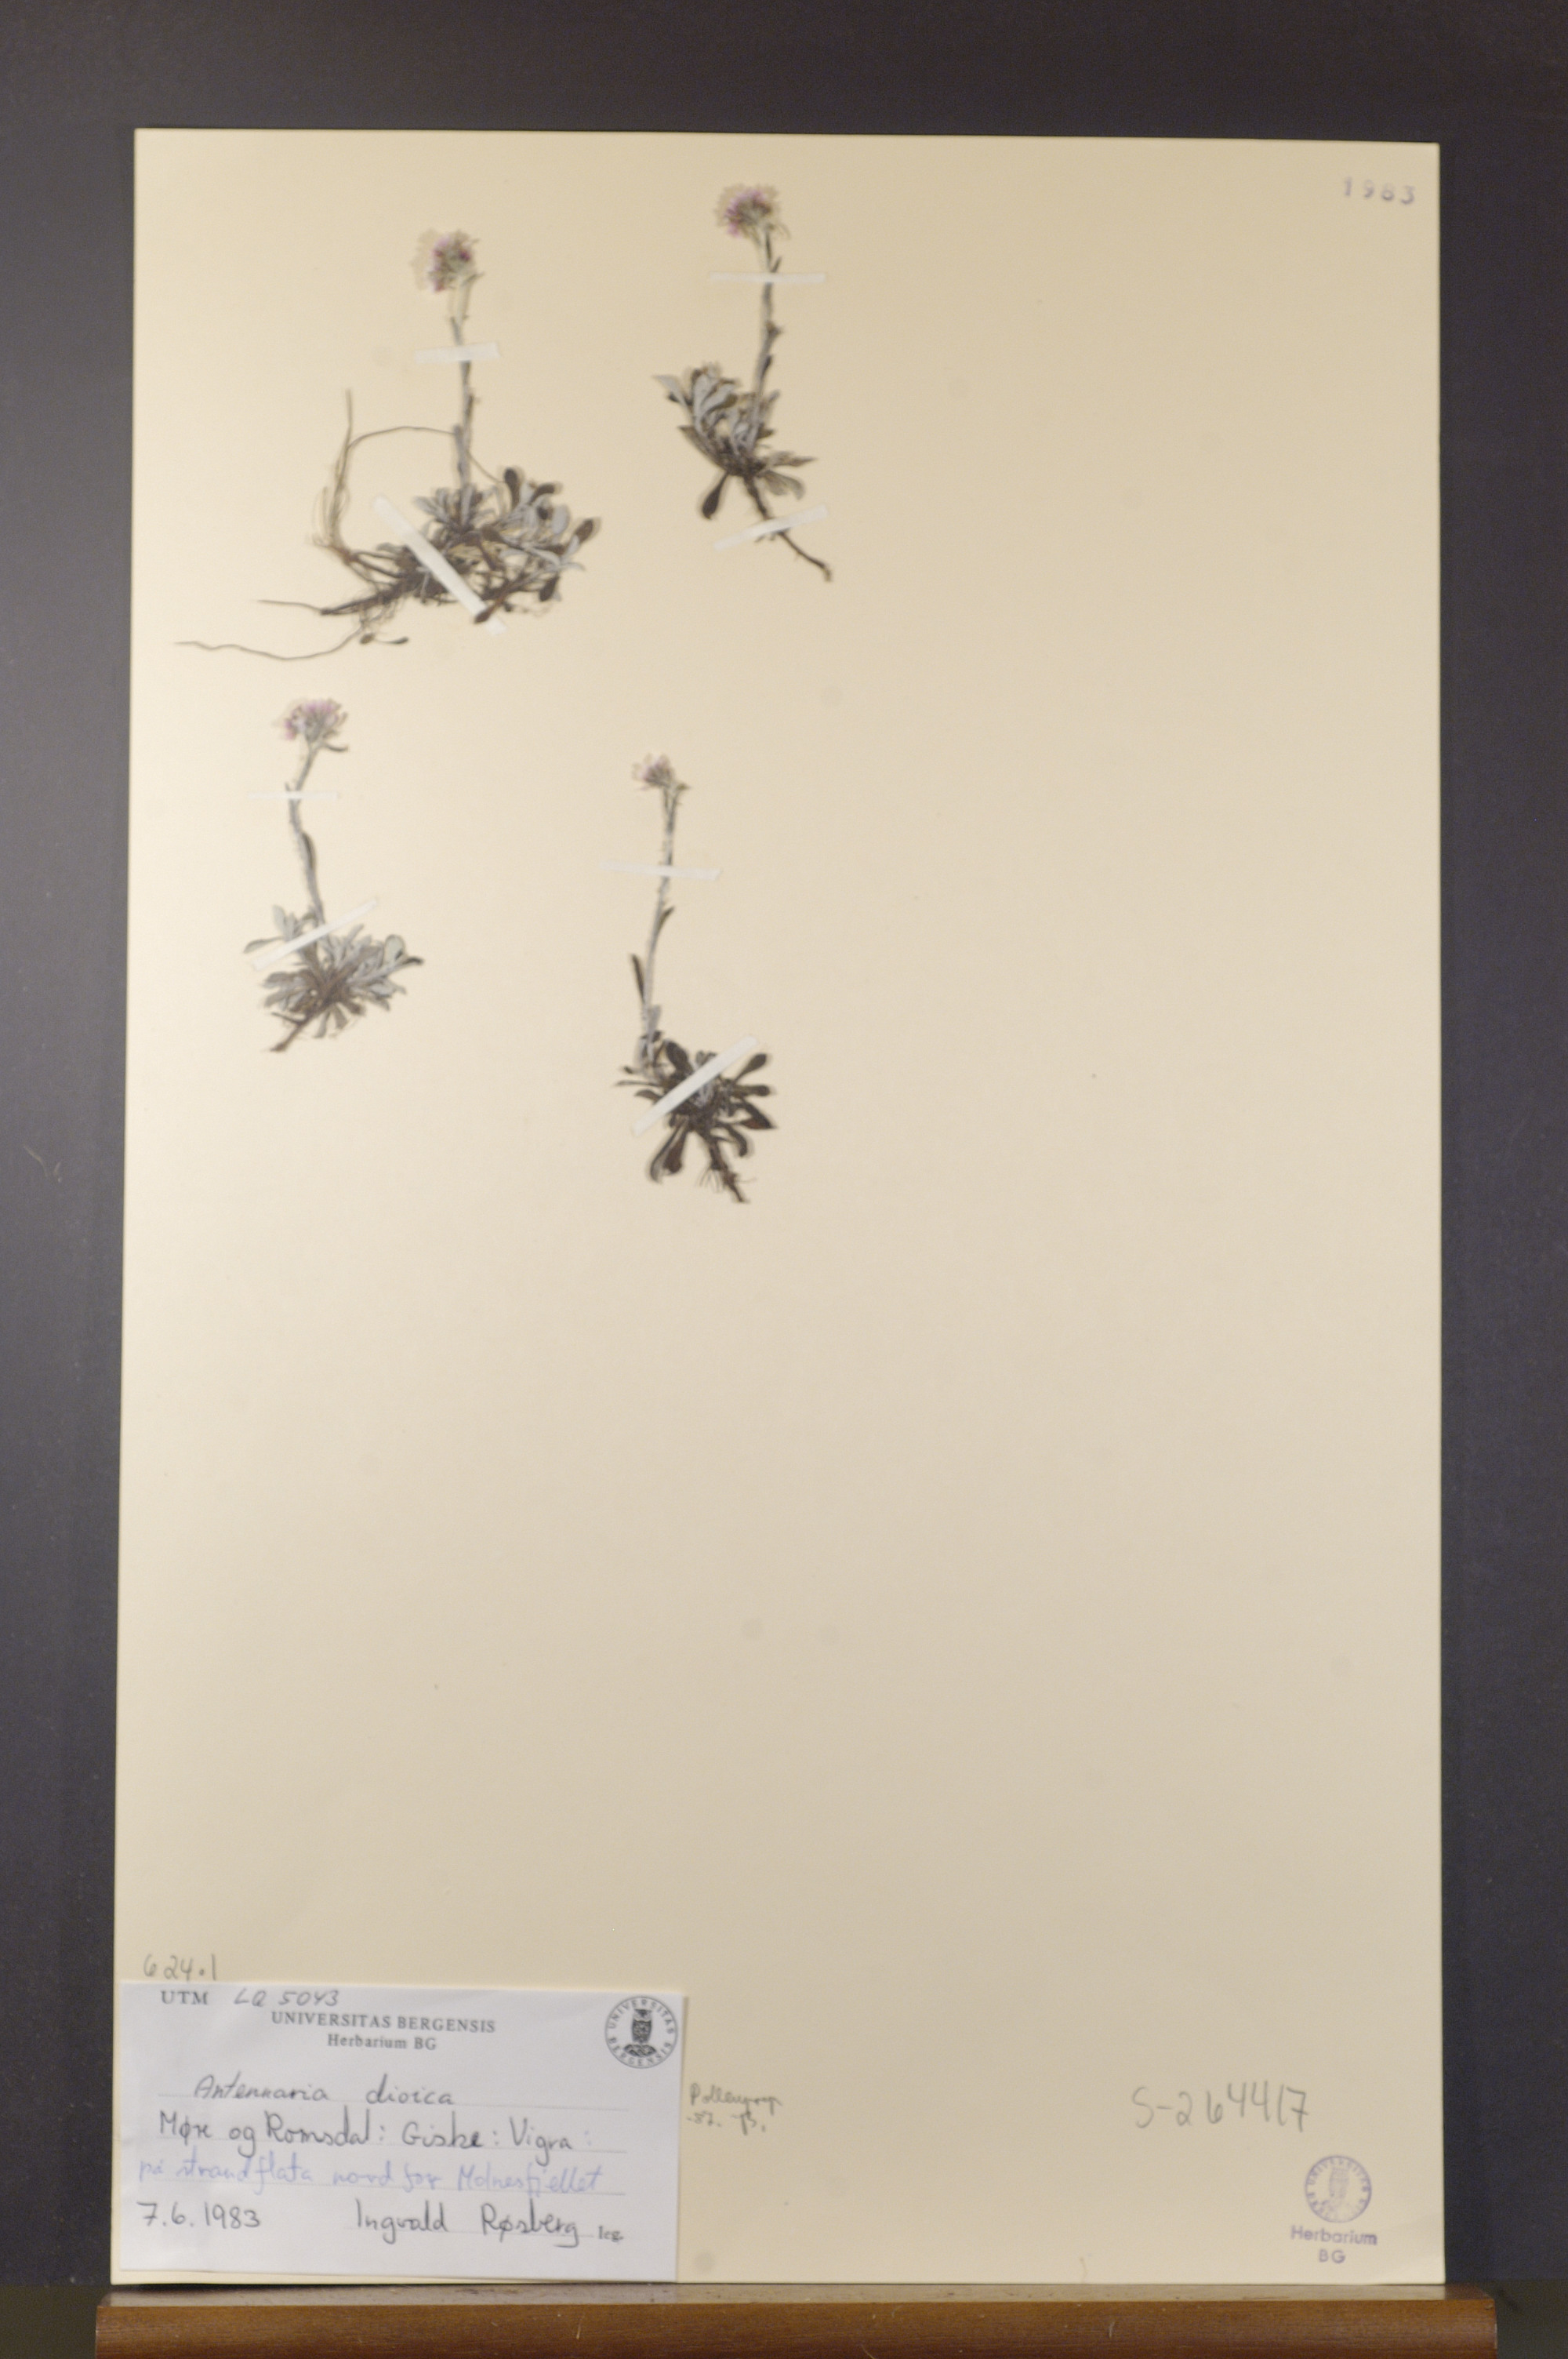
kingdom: Plantae
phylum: Tracheophyta
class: Magnoliopsida
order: Asterales
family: Asteraceae
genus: Antennaria
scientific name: Antennaria dioica
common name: Mountain everlasting
